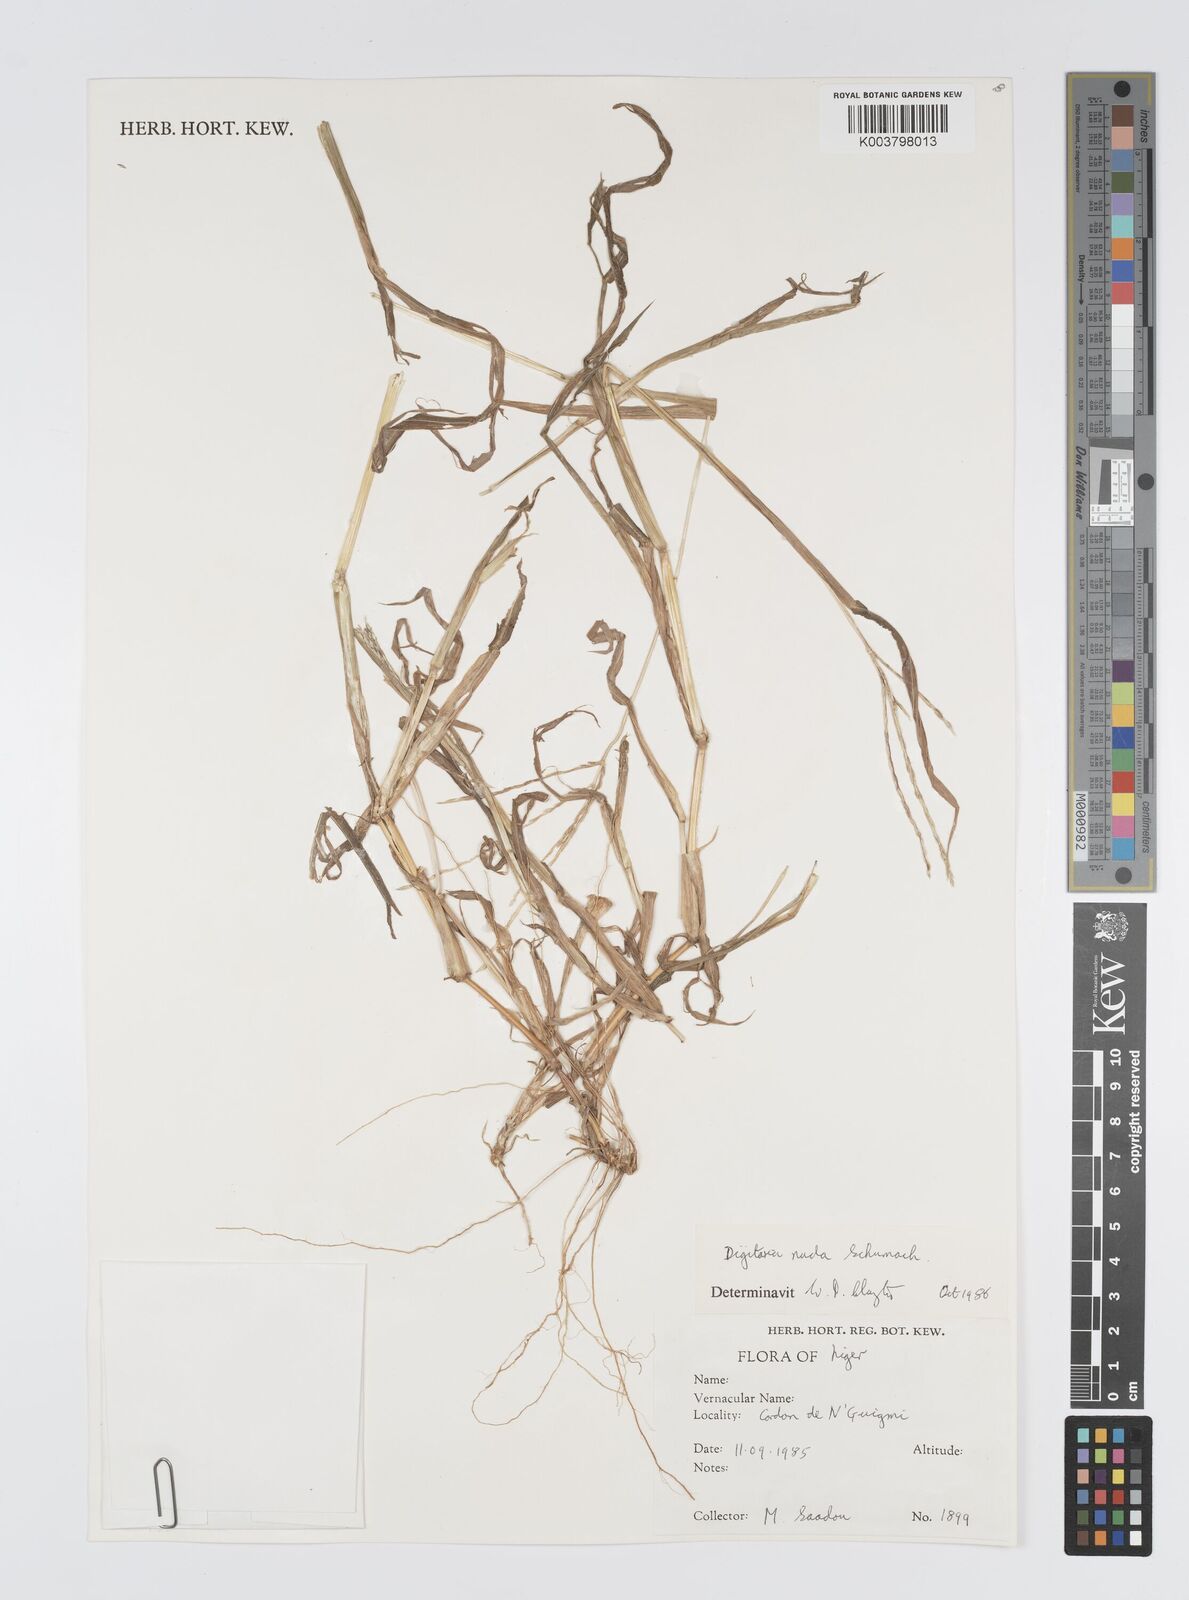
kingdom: Plantae
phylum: Tracheophyta
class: Liliopsida
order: Poales
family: Poaceae
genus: Digitaria
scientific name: Digitaria nuda
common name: Naked crabgrass
